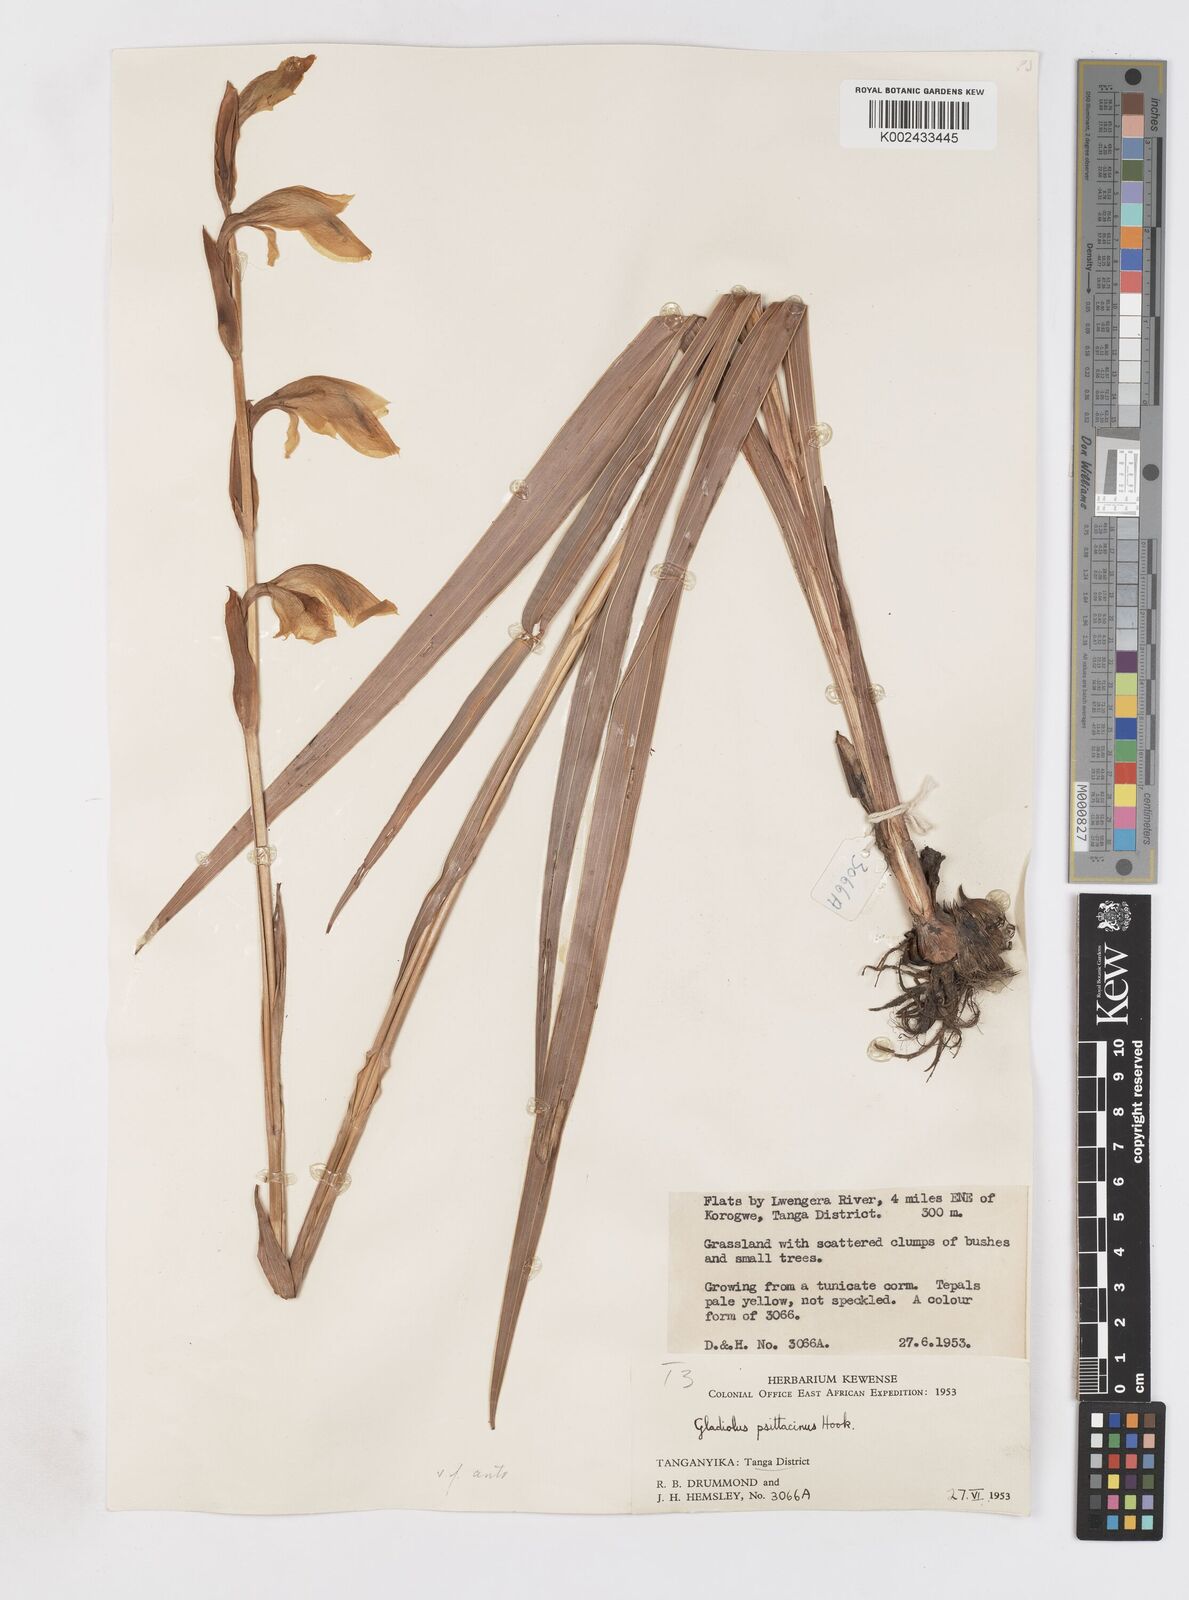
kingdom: Plantae
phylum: Tracheophyta
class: Liliopsida
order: Asparagales
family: Iridaceae
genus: Gladiolus
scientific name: Gladiolus dalenii
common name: Cornflag
